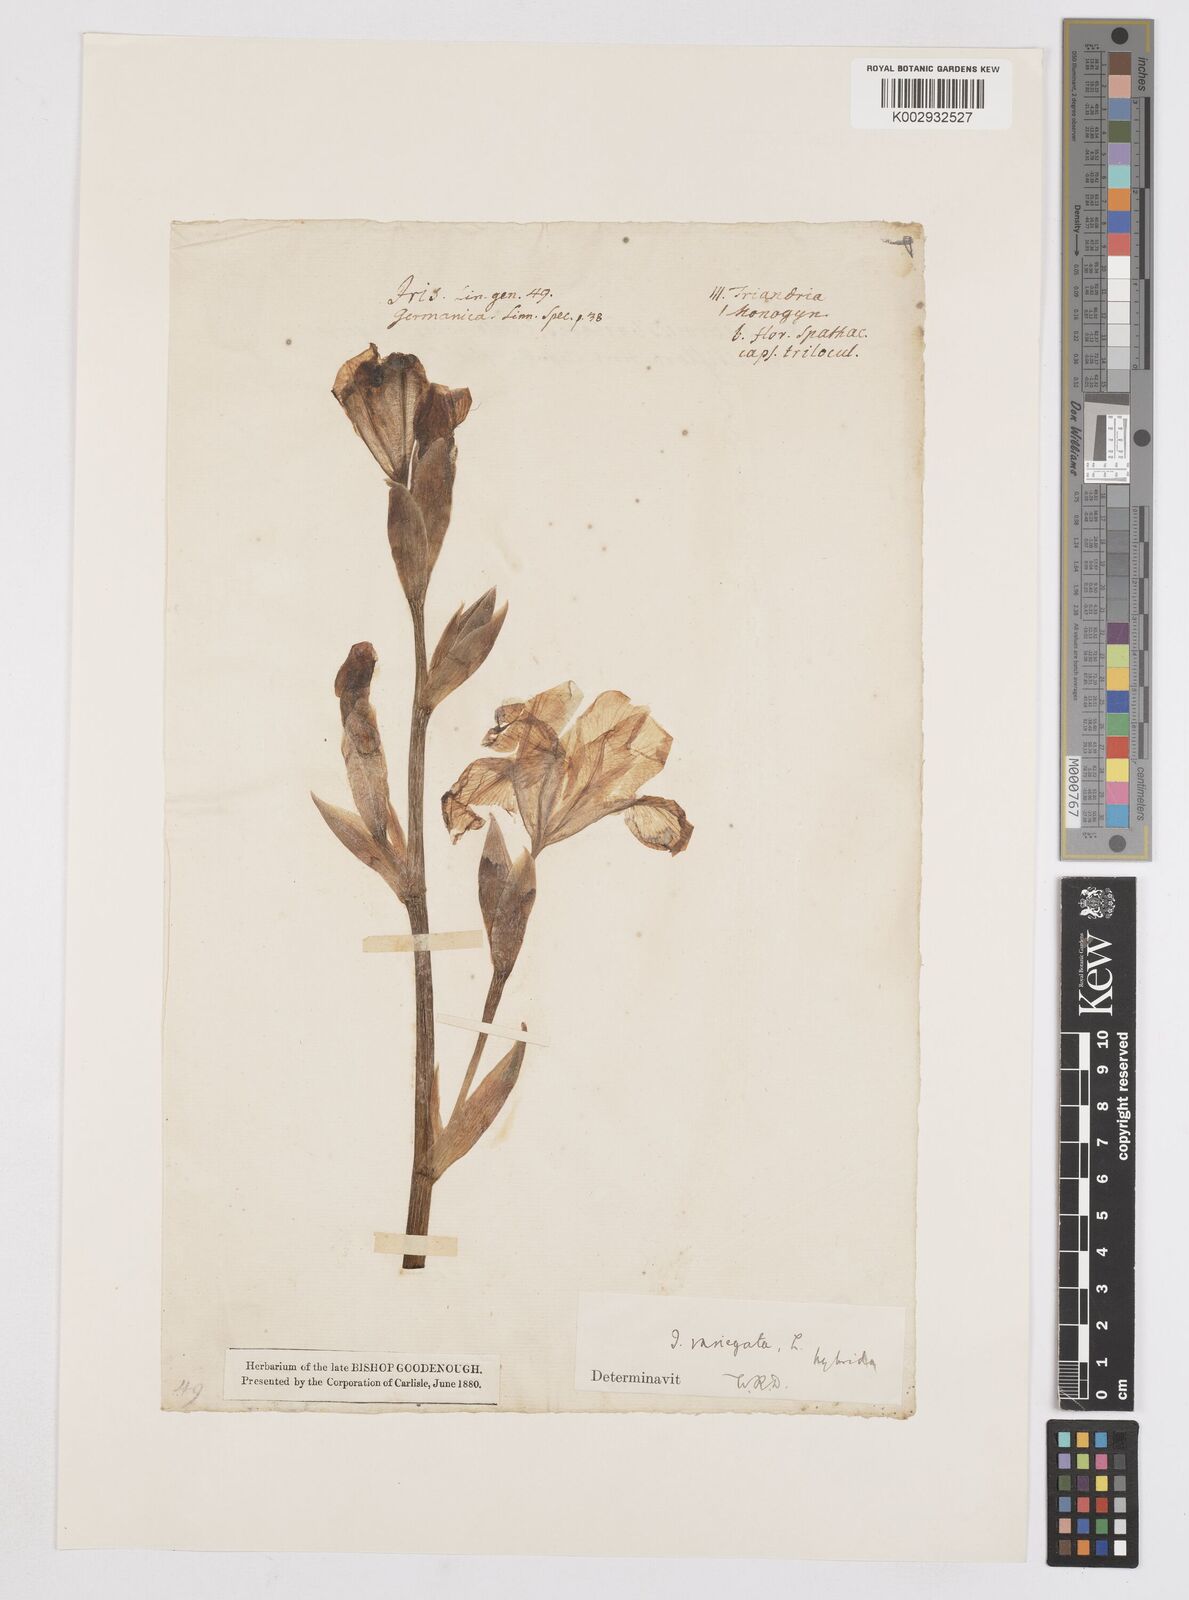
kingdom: Plantae
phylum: Tracheophyta
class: Liliopsida
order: Asparagales
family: Iridaceae
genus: Iris
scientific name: Iris
